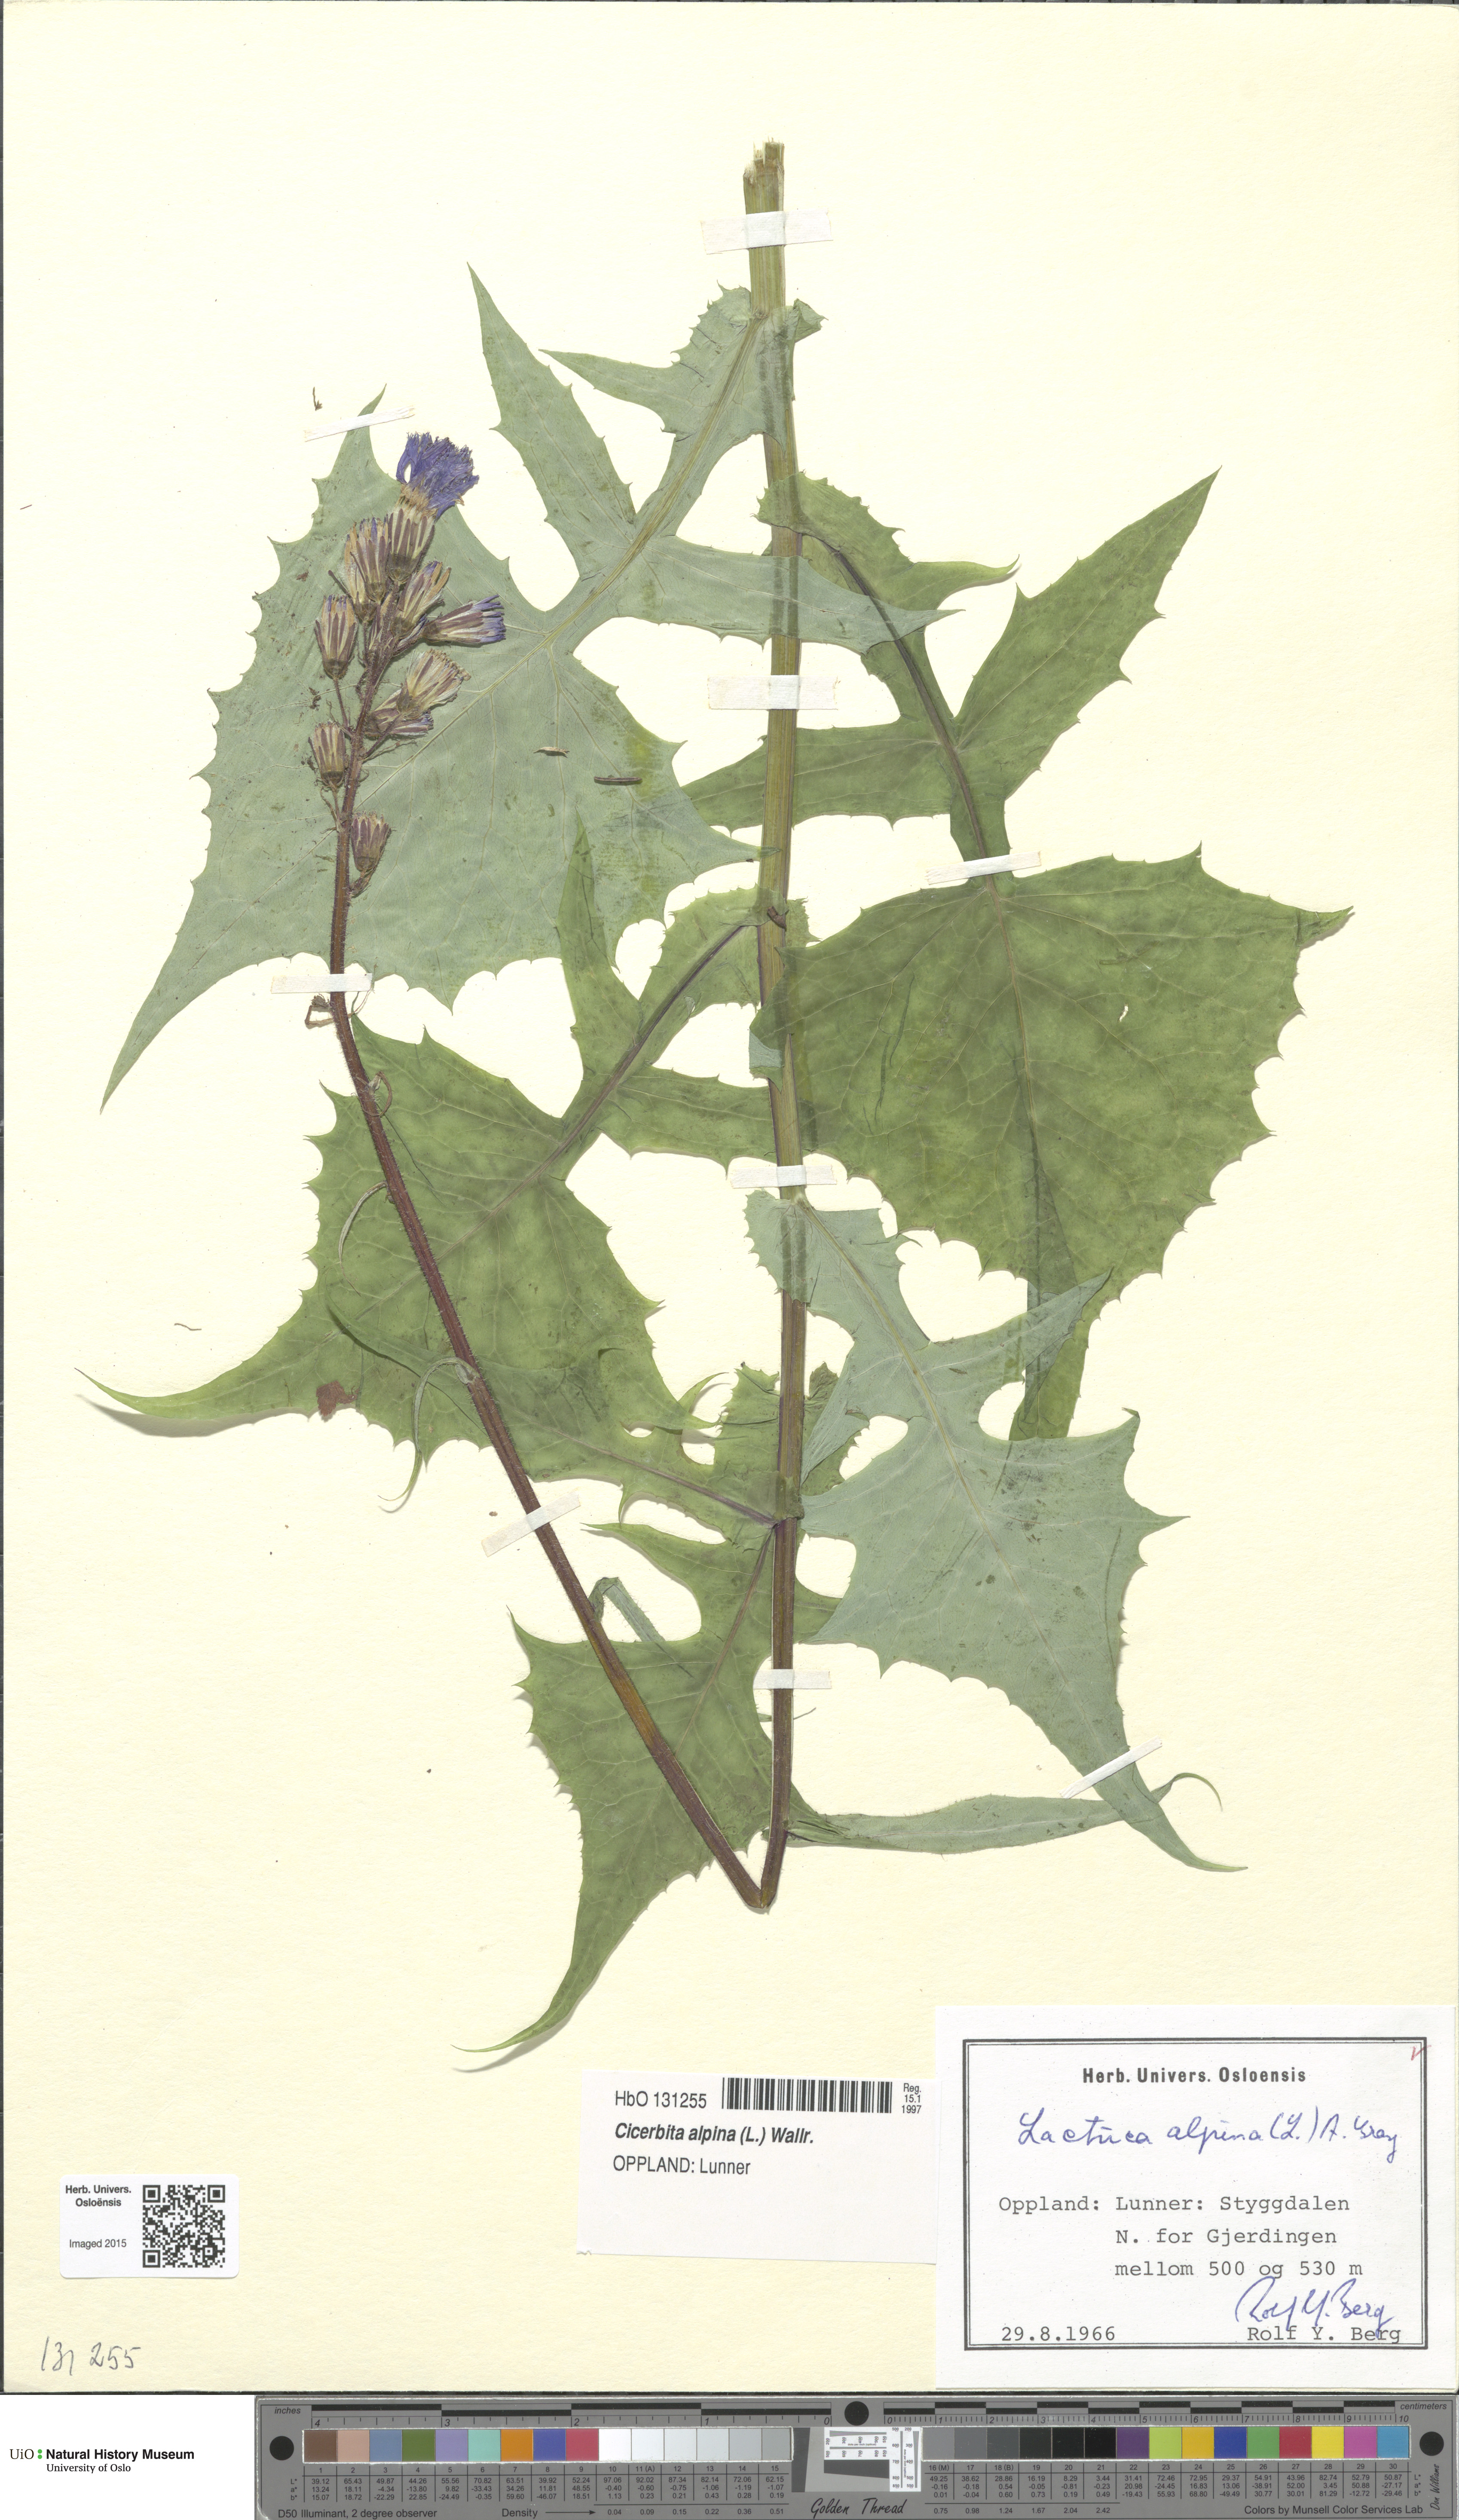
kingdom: Plantae
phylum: Tracheophyta
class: Magnoliopsida
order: Asterales
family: Asteraceae
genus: Cicerbita
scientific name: Cicerbita alpina
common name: Alpine blue-sow-thistle
